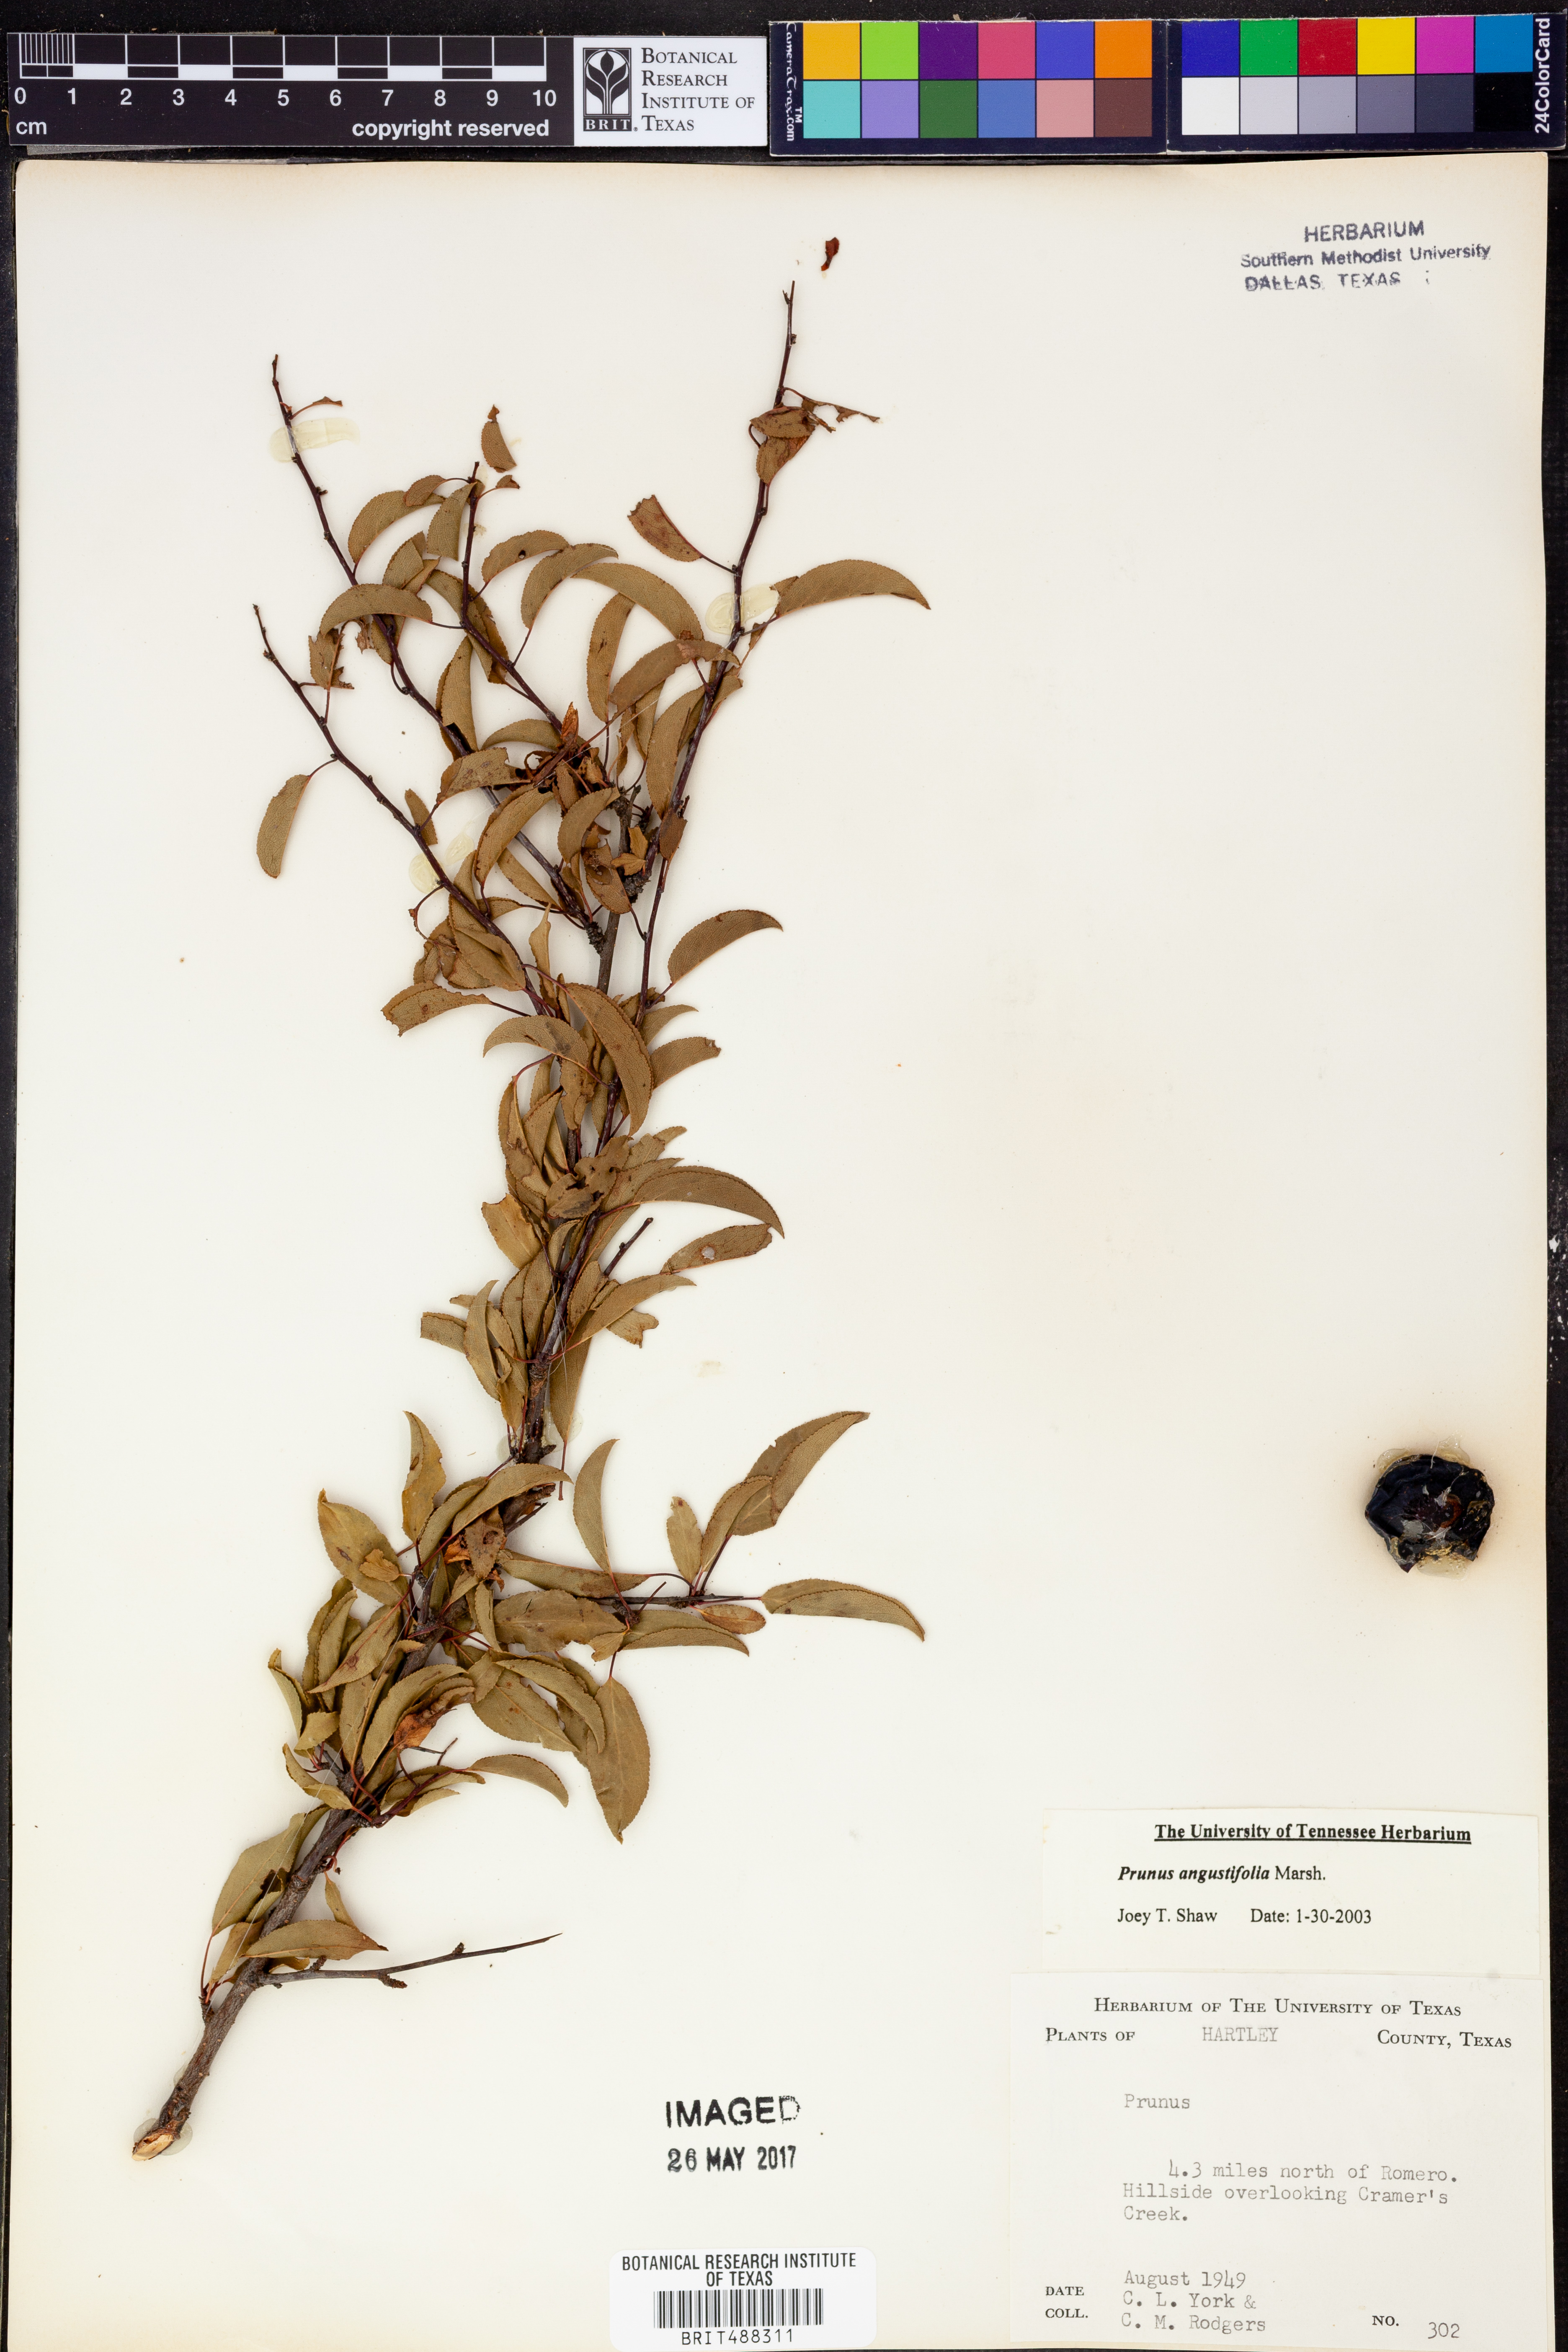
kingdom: Plantae
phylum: Tracheophyta
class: Magnoliopsida
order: Rosales
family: Rosaceae
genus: Prunus
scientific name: Prunus angustifolia
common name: Cherokee plum
